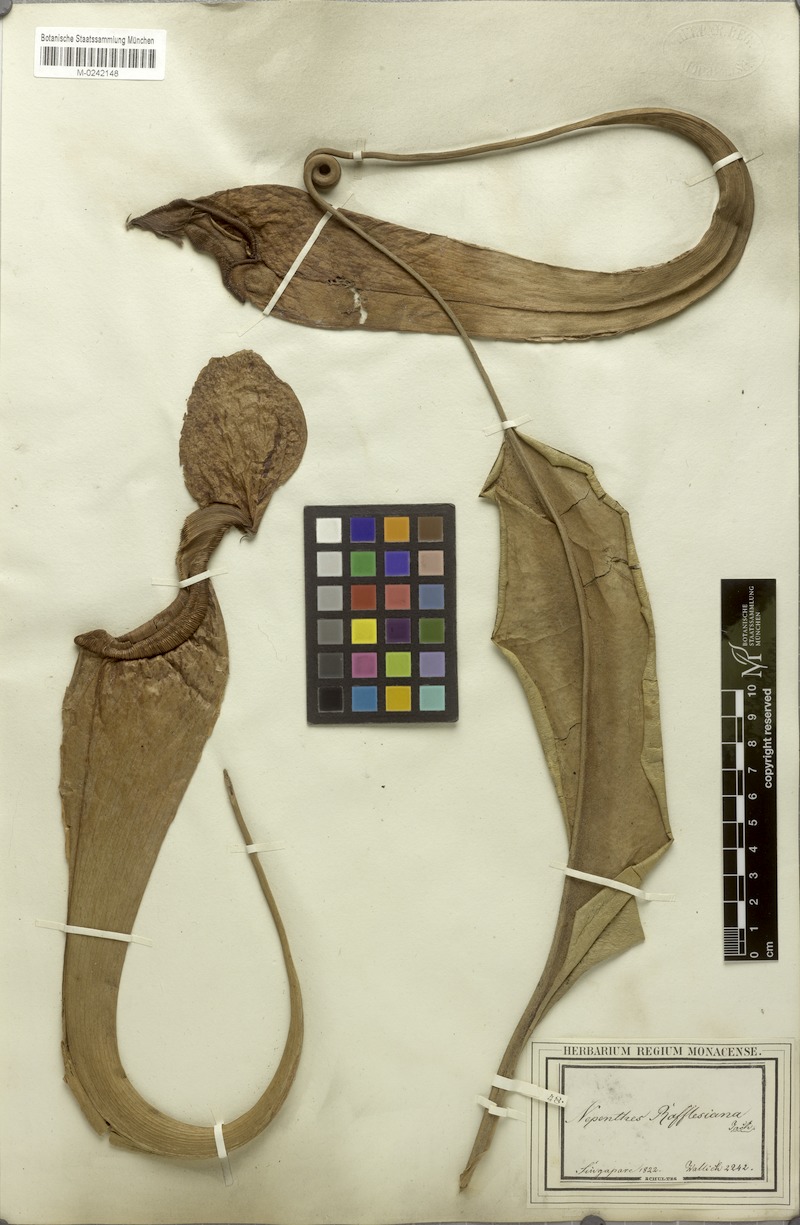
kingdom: Plantae
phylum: Tracheophyta
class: Magnoliopsida
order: Caryophyllales
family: Nepenthaceae
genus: Nepenthes
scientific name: Nepenthes rafflesiana
